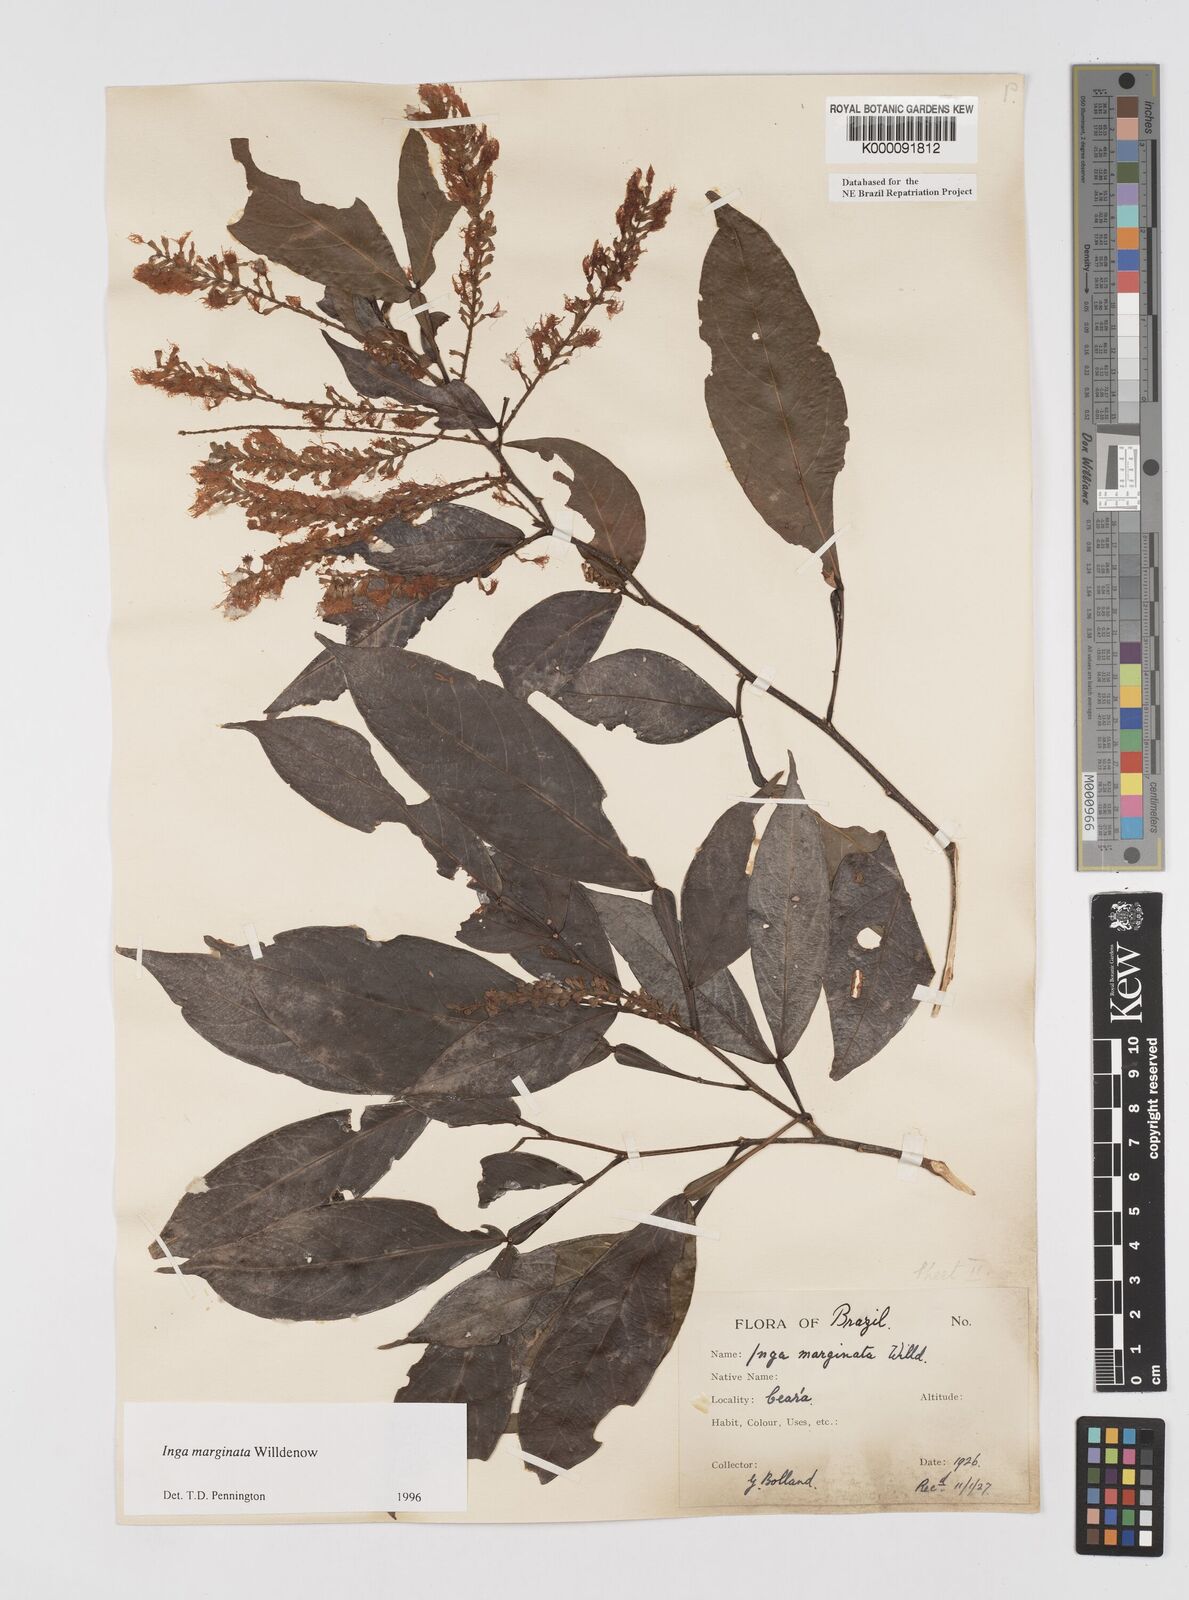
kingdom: Plantae
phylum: Tracheophyta
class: Magnoliopsida
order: Fabales
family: Fabaceae
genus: Inga
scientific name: Inga marginata
